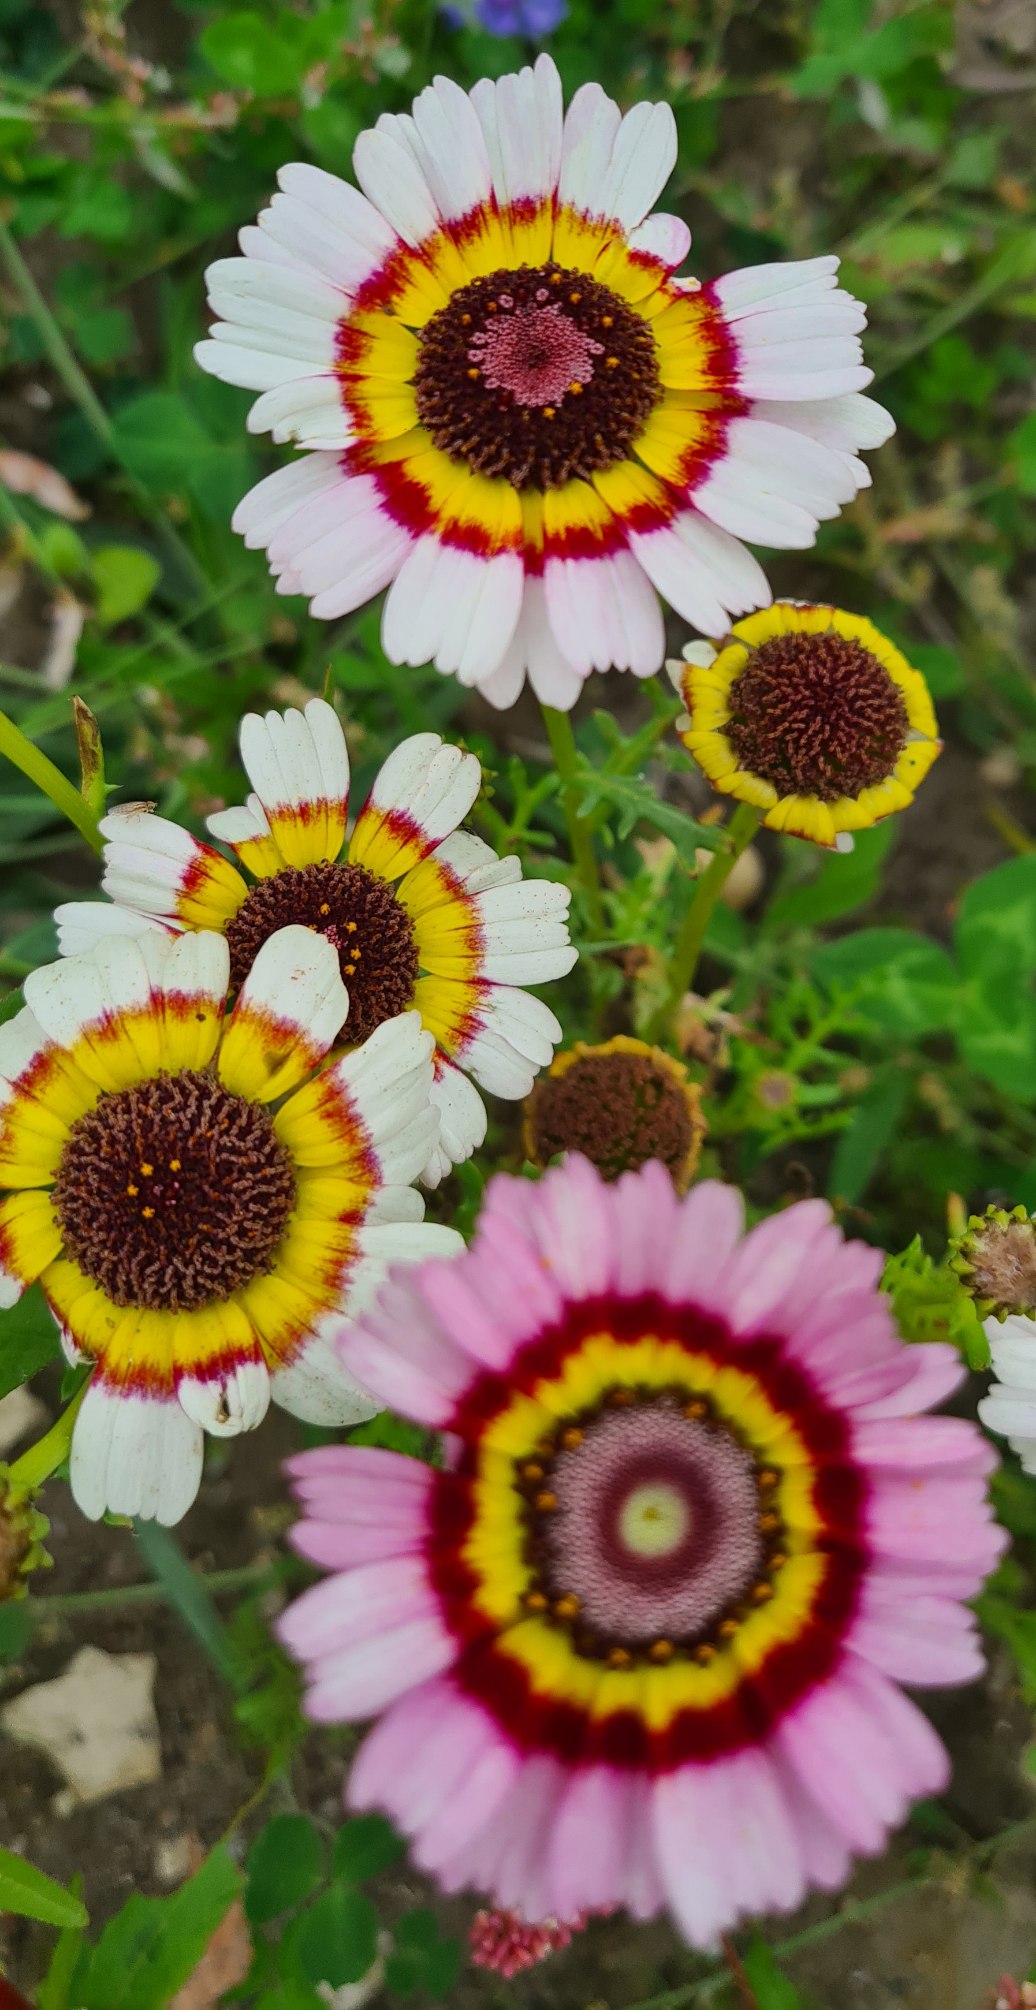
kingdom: Plantae
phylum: Tracheophyta
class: Magnoliopsida
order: Asterales
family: Asteraceae
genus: Glebionis
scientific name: Glebionis carinata
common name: Flerfarvet okseøje
